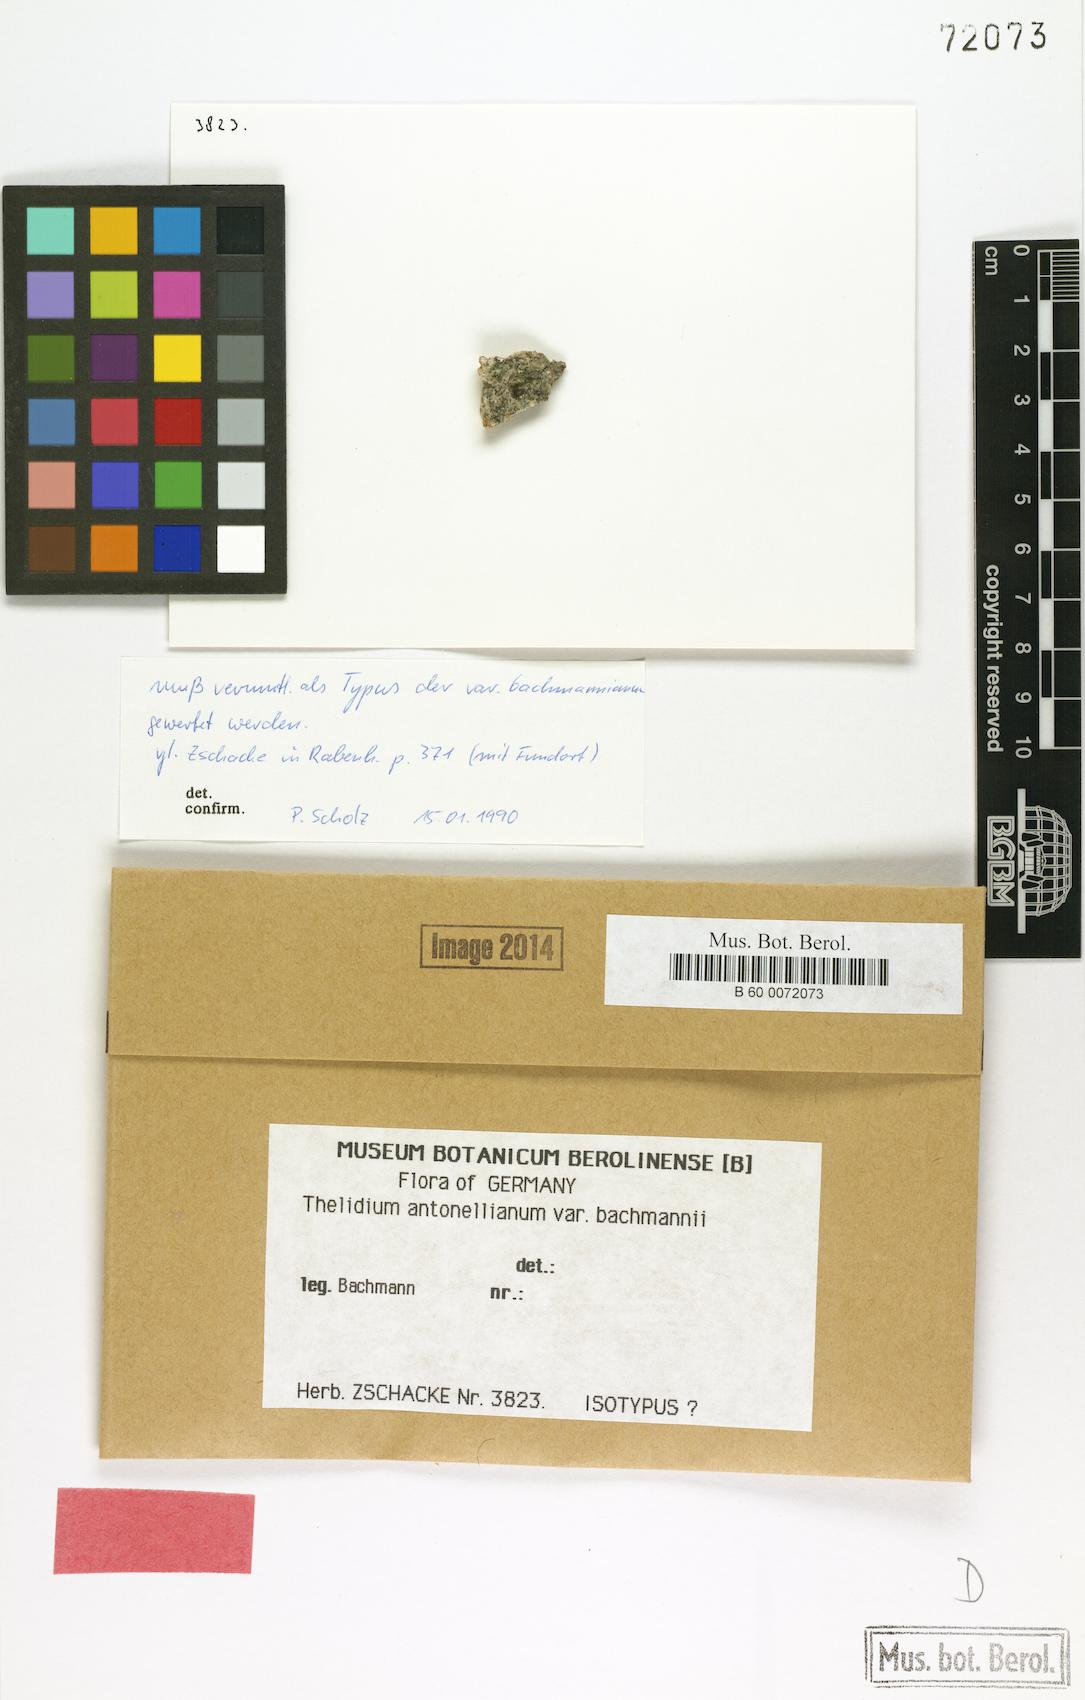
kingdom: Fungi
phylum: Ascomycota
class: Eurotiomycetes
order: Verrucariales
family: Verrucariaceae
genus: Thelidium
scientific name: Thelidium antonellianum
